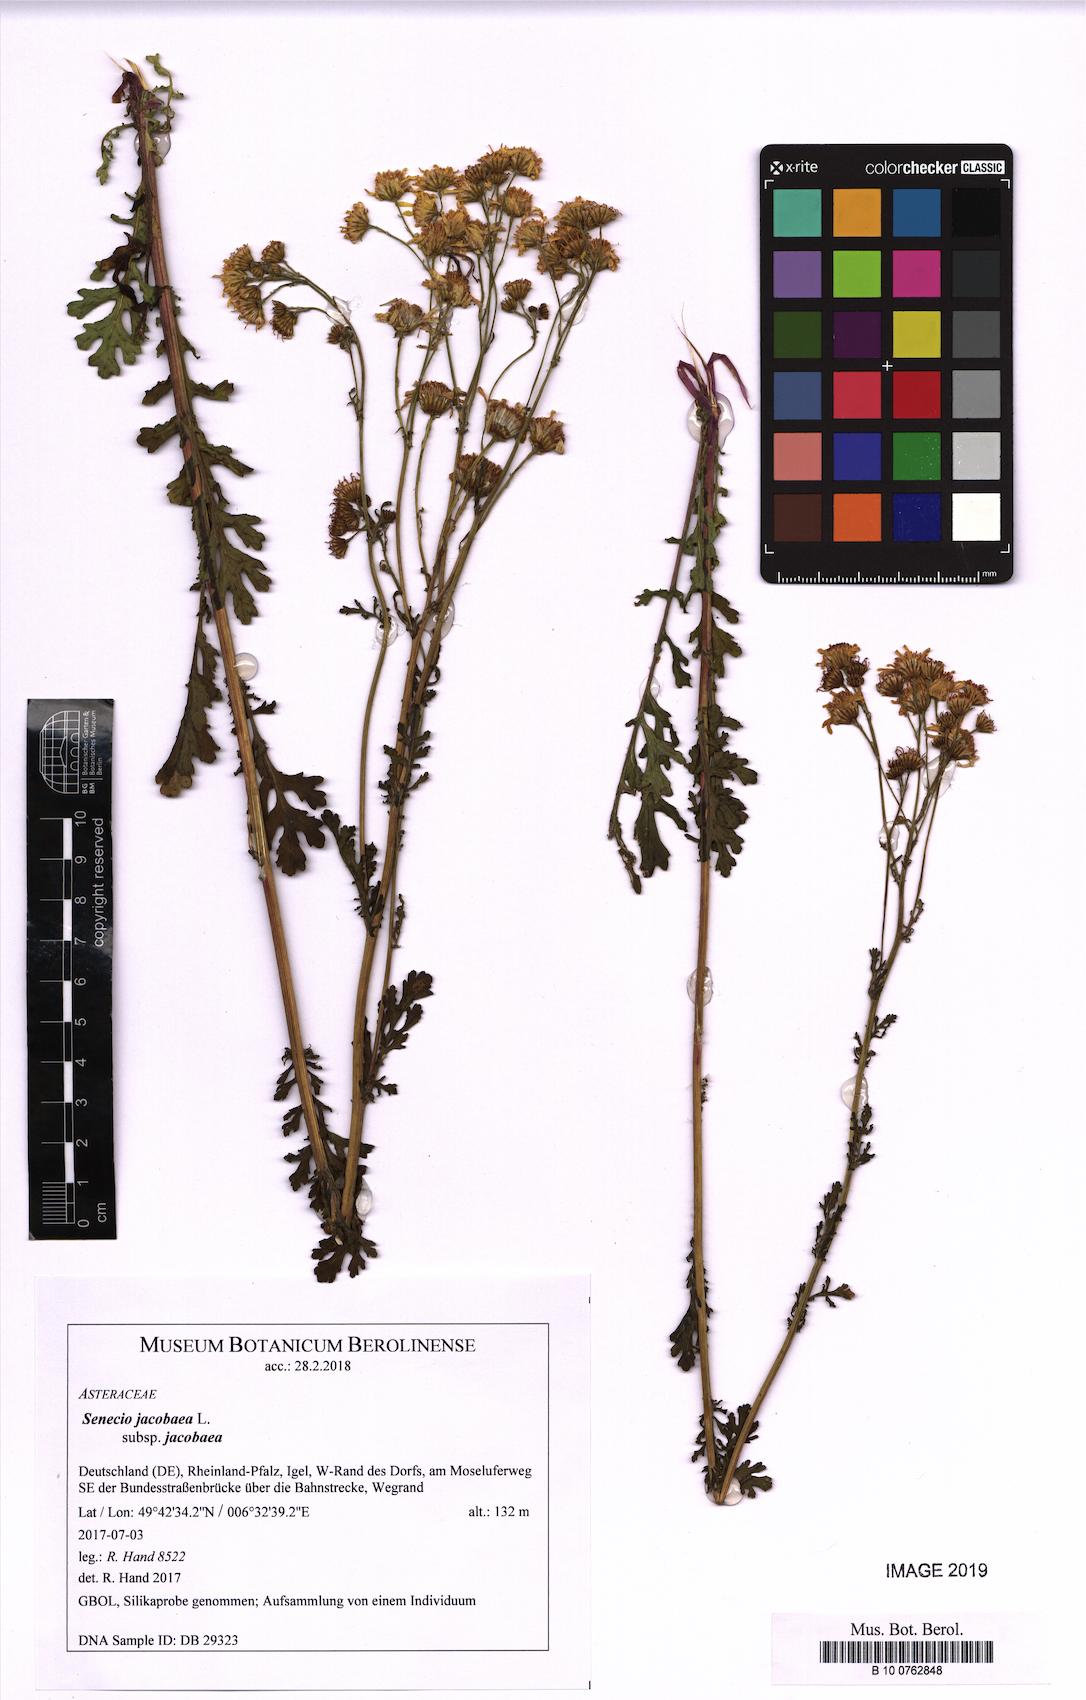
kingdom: Plantae
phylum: Tracheophyta
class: Magnoliopsida
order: Asterales
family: Asteraceae
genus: Jacobaea
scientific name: Jacobaea vulgaris
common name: Stinking willie
